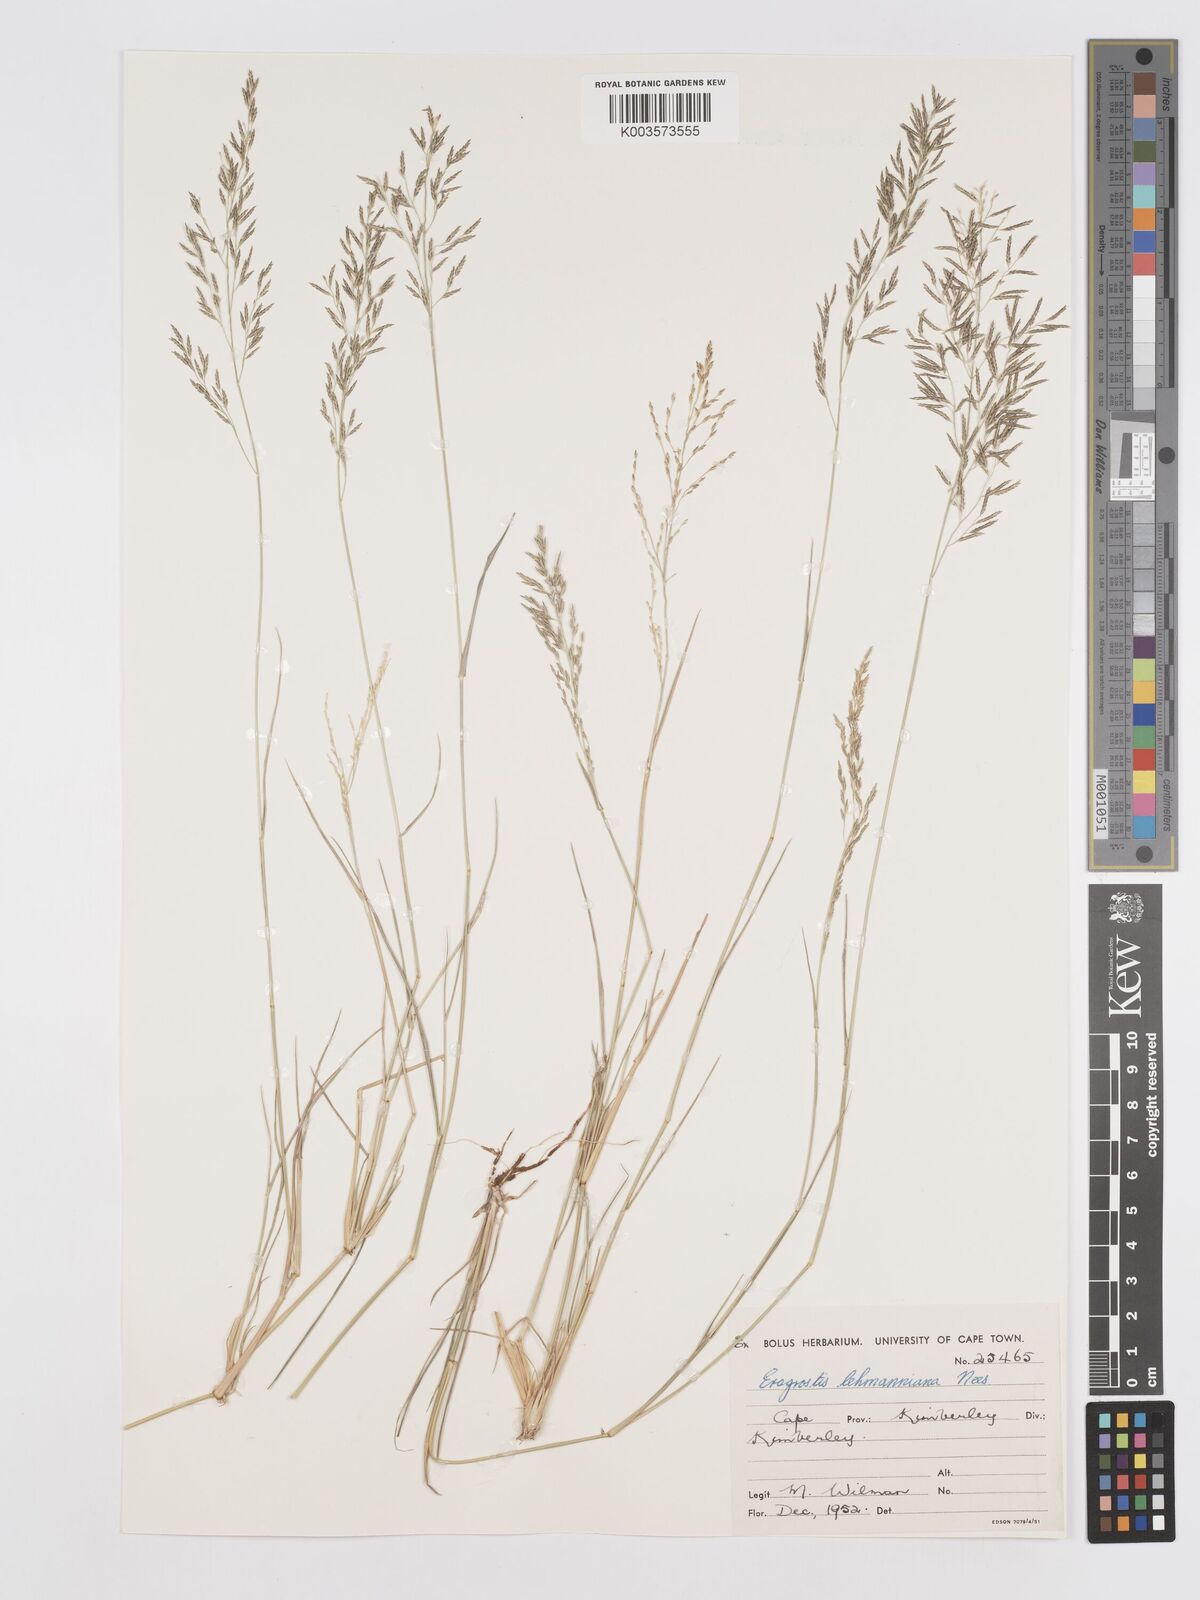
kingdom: Plantae
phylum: Tracheophyta
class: Liliopsida
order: Poales
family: Poaceae
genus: Eragrostis
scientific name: Eragrostis lehmanniana
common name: Lehmann lovegrass
